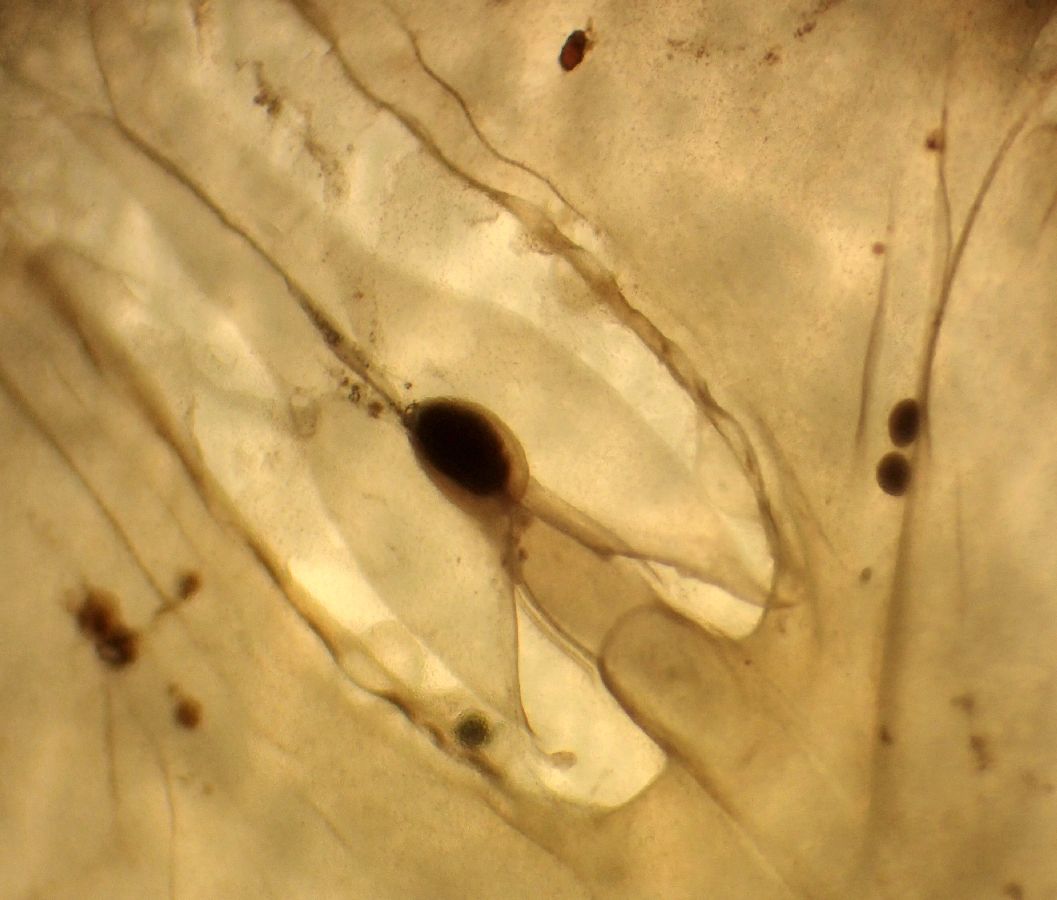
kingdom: Animalia
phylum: Cnidaria
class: Scyphozoa
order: Semaeostomeae
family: Cyaneidae
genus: Cyanea
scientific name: Cyanea tzetlinii
